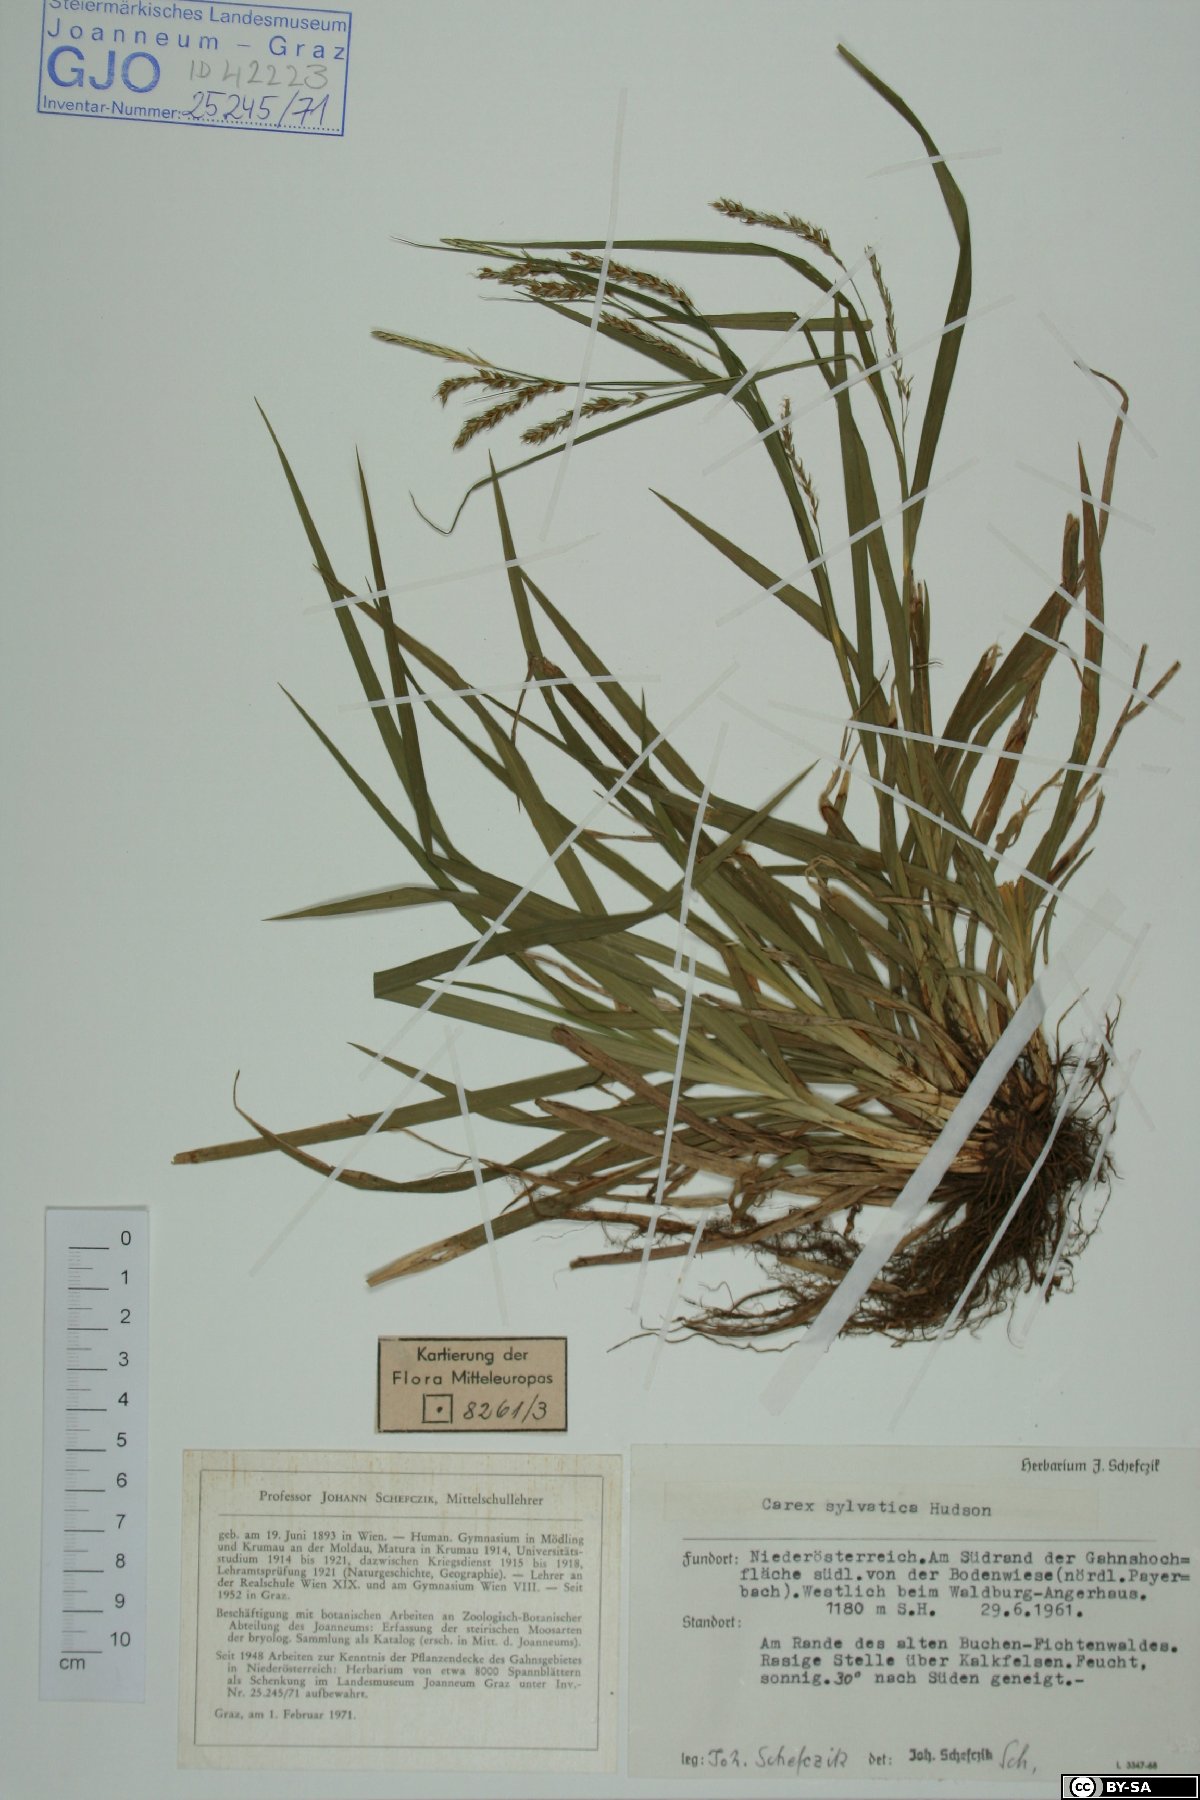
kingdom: Plantae
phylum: Tracheophyta
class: Liliopsida
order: Poales
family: Cyperaceae
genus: Carex
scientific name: Carex sylvatica
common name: Wood-sedge
